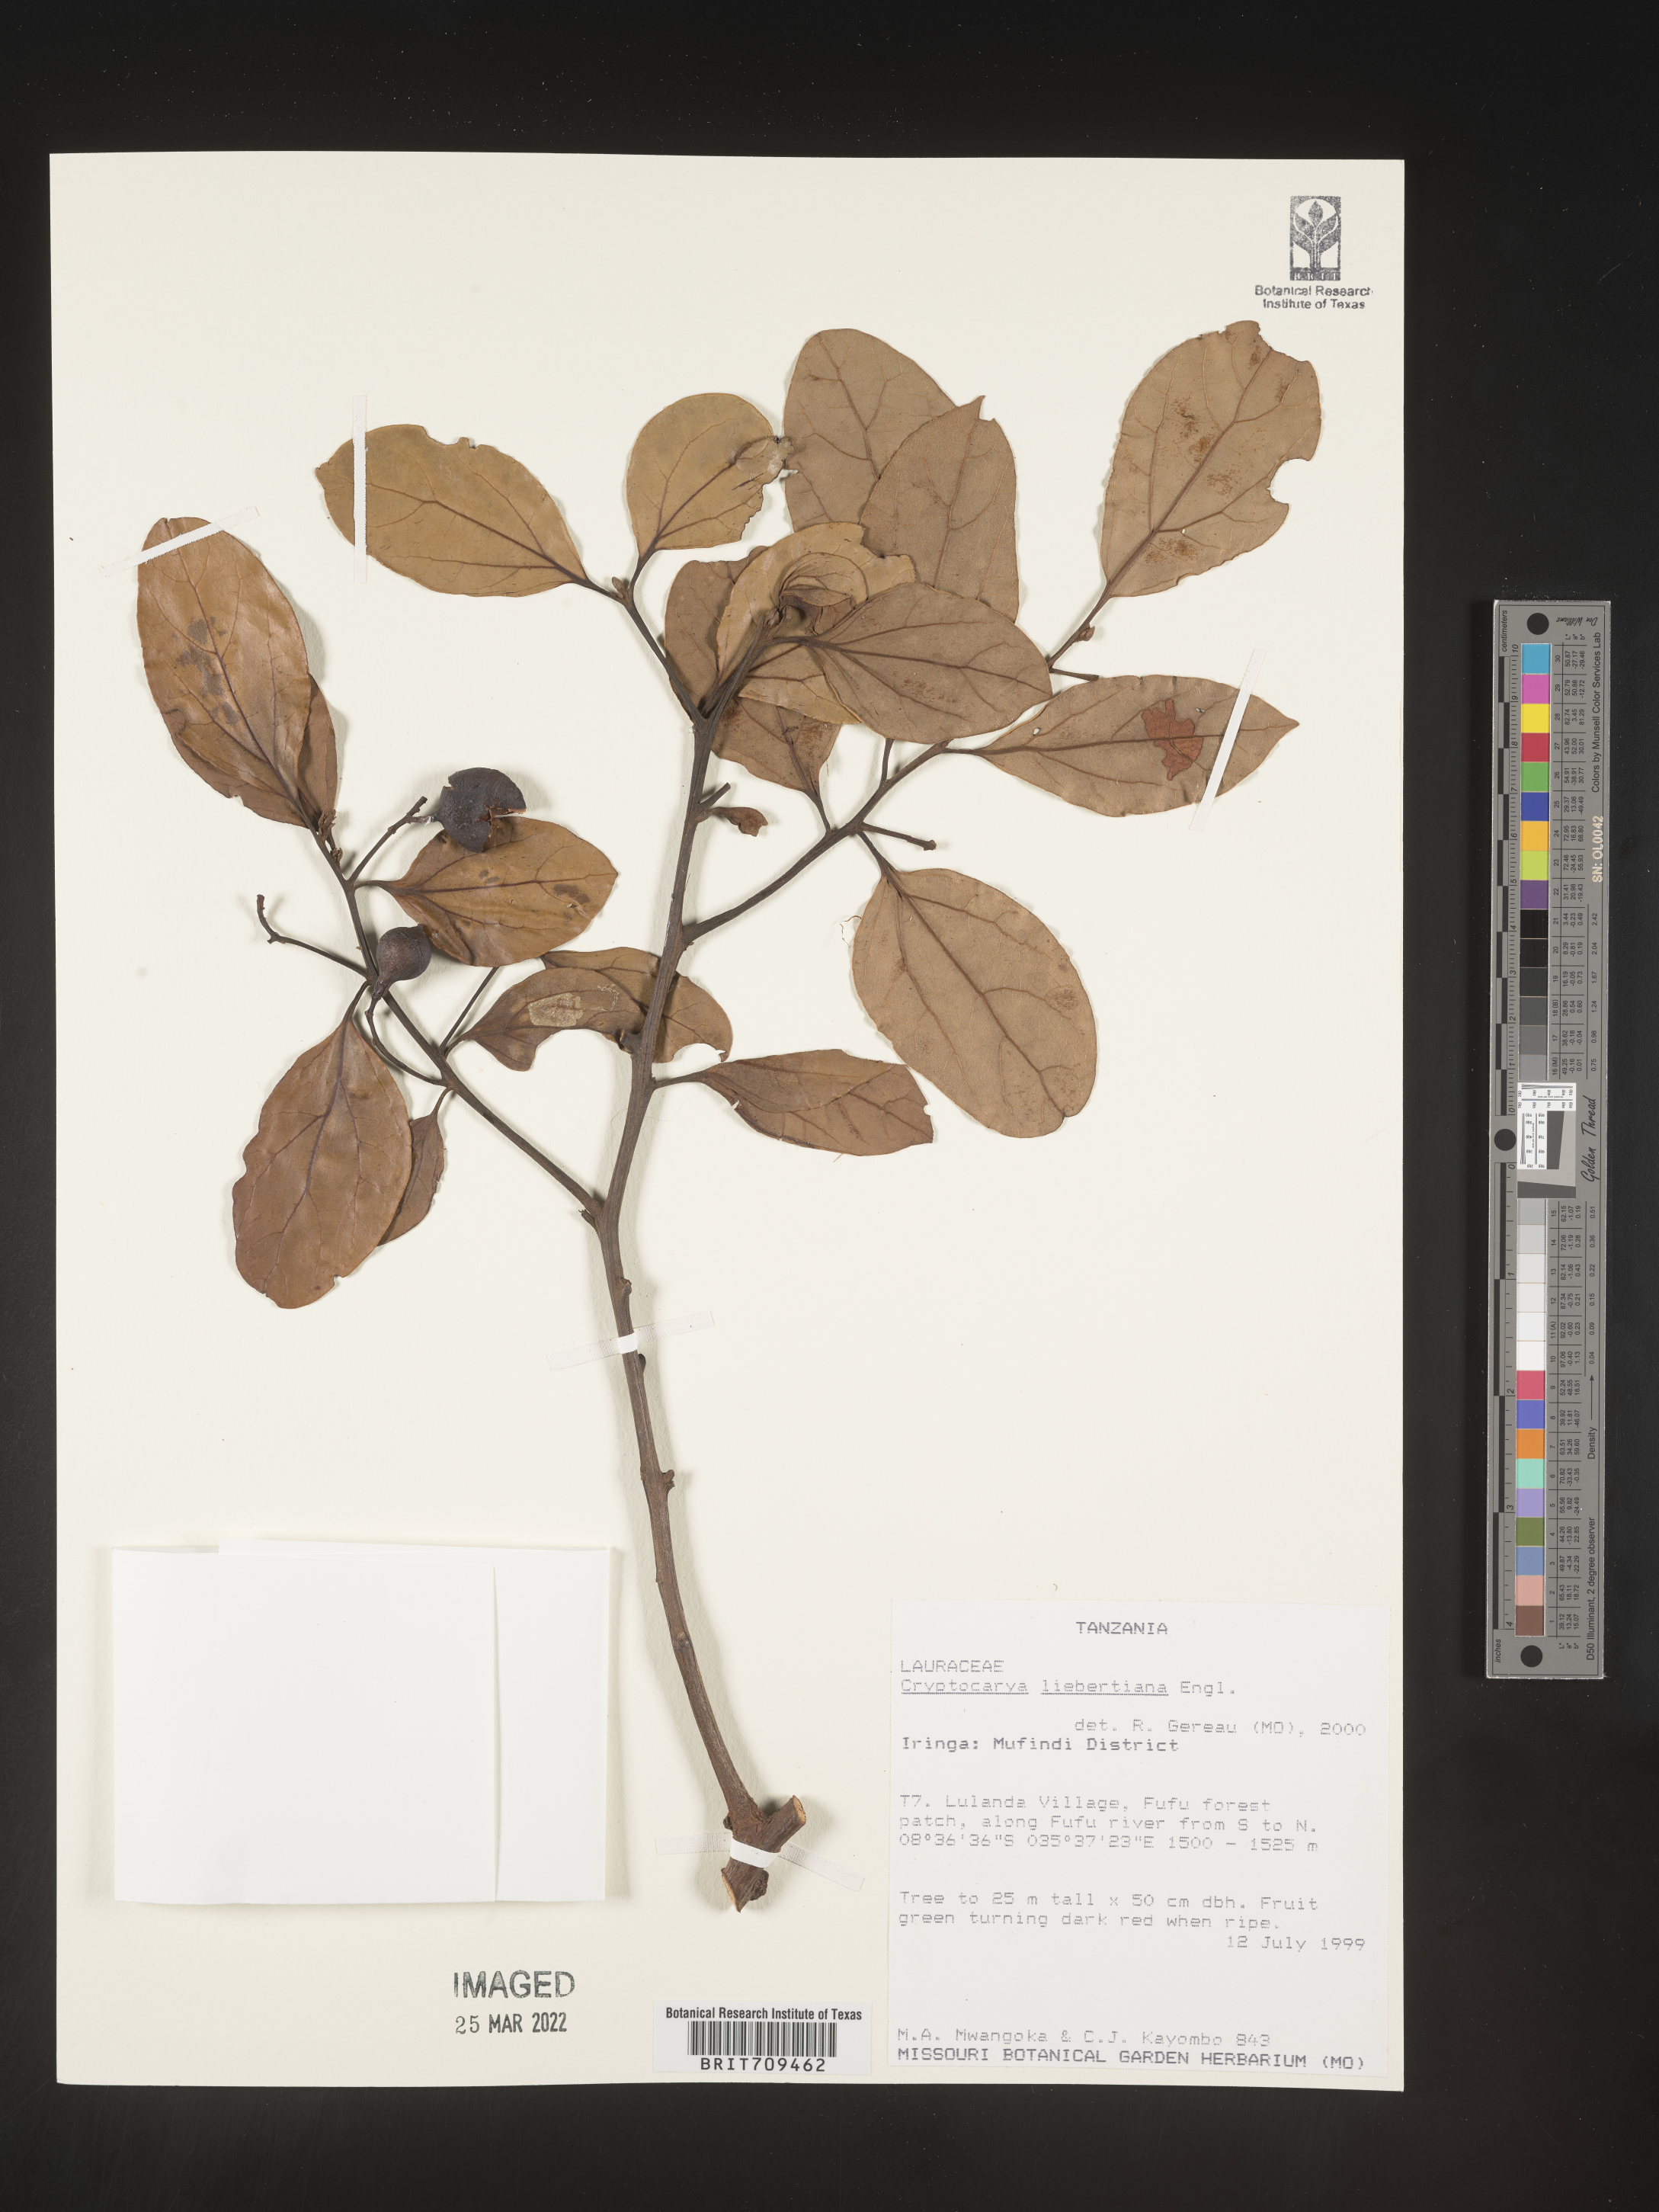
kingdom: Plantae
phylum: Tracheophyta
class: Magnoliopsida
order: Laurales
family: Lauraceae
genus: Cryptocarya
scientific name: Cryptocarya
